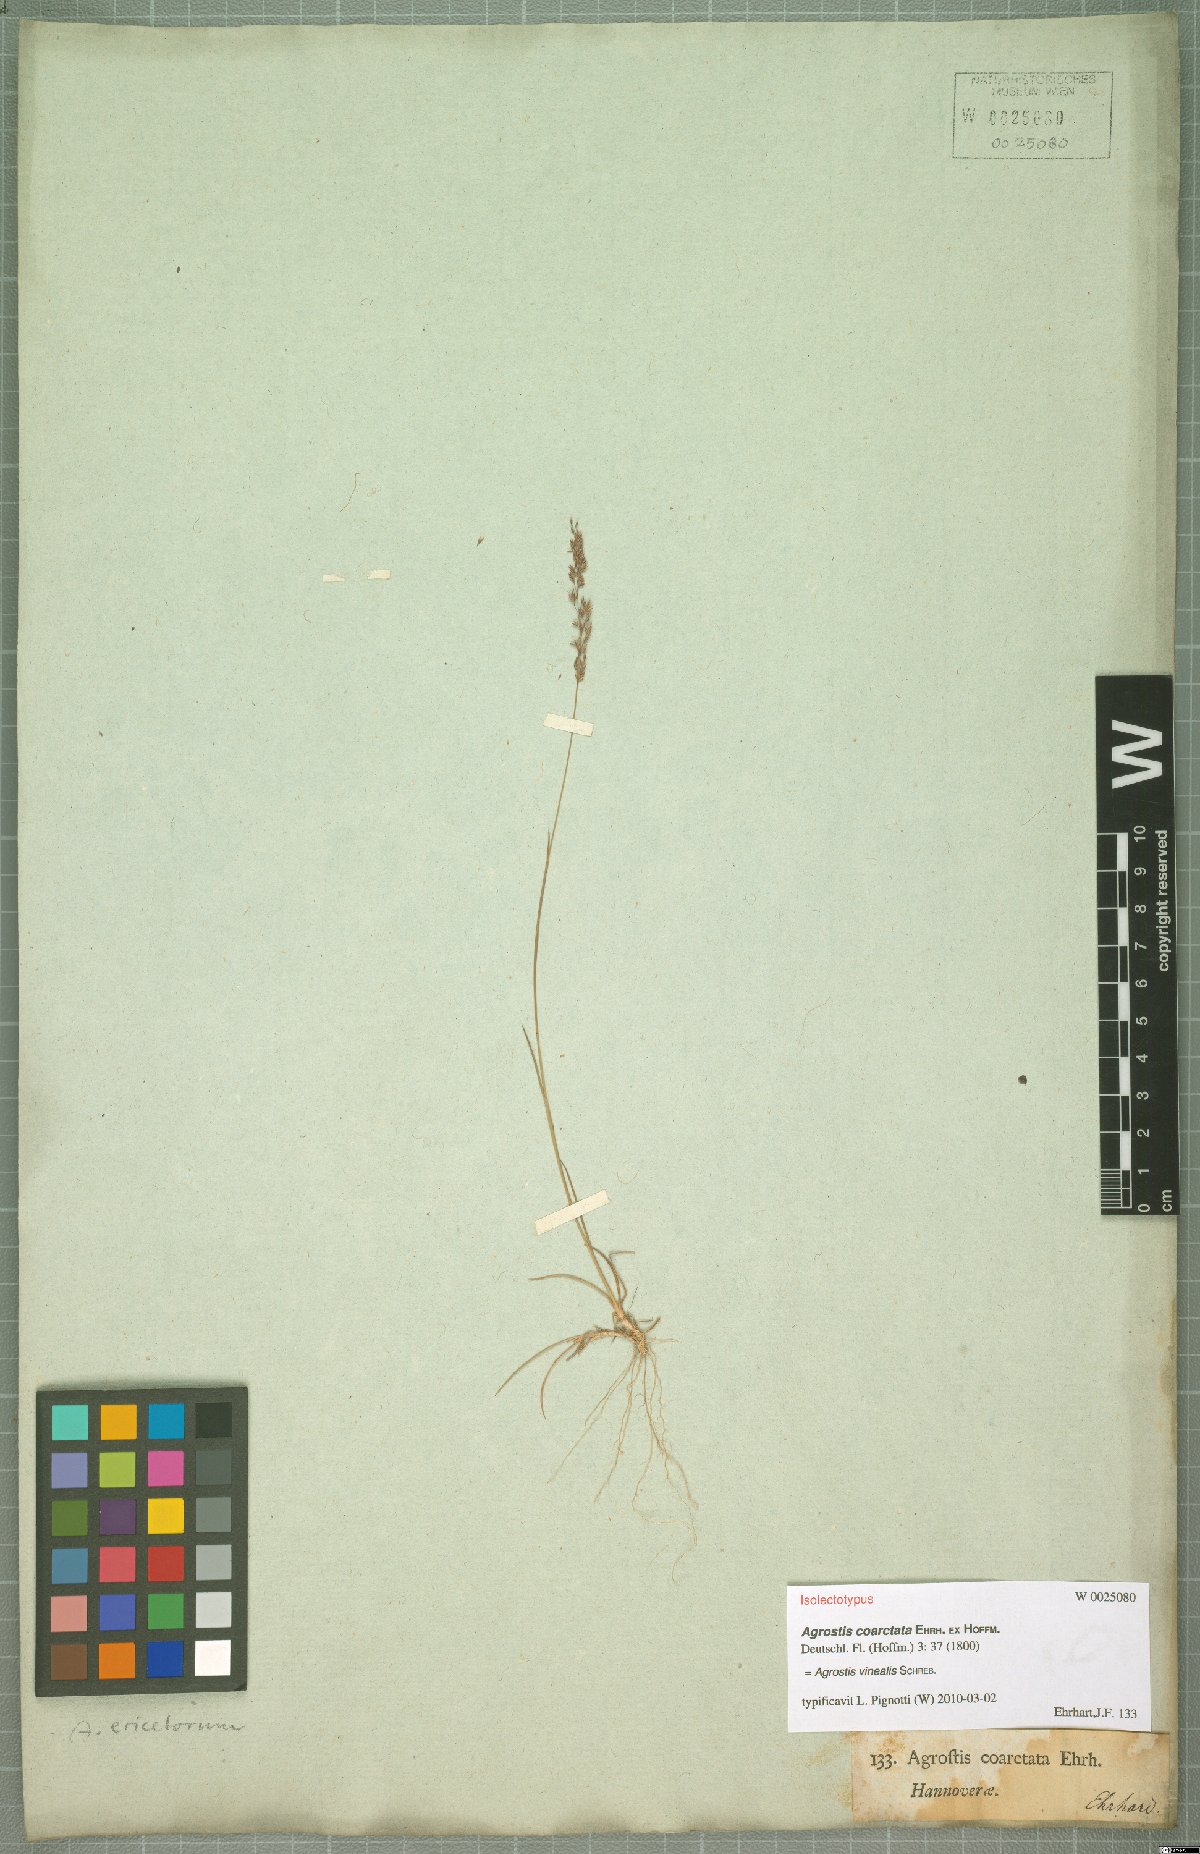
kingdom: Plantae
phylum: Tracheophyta
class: Liliopsida
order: Poales
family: Poaceae
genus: Agrostis
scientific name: Agrostis vinealis
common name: Brown bent
